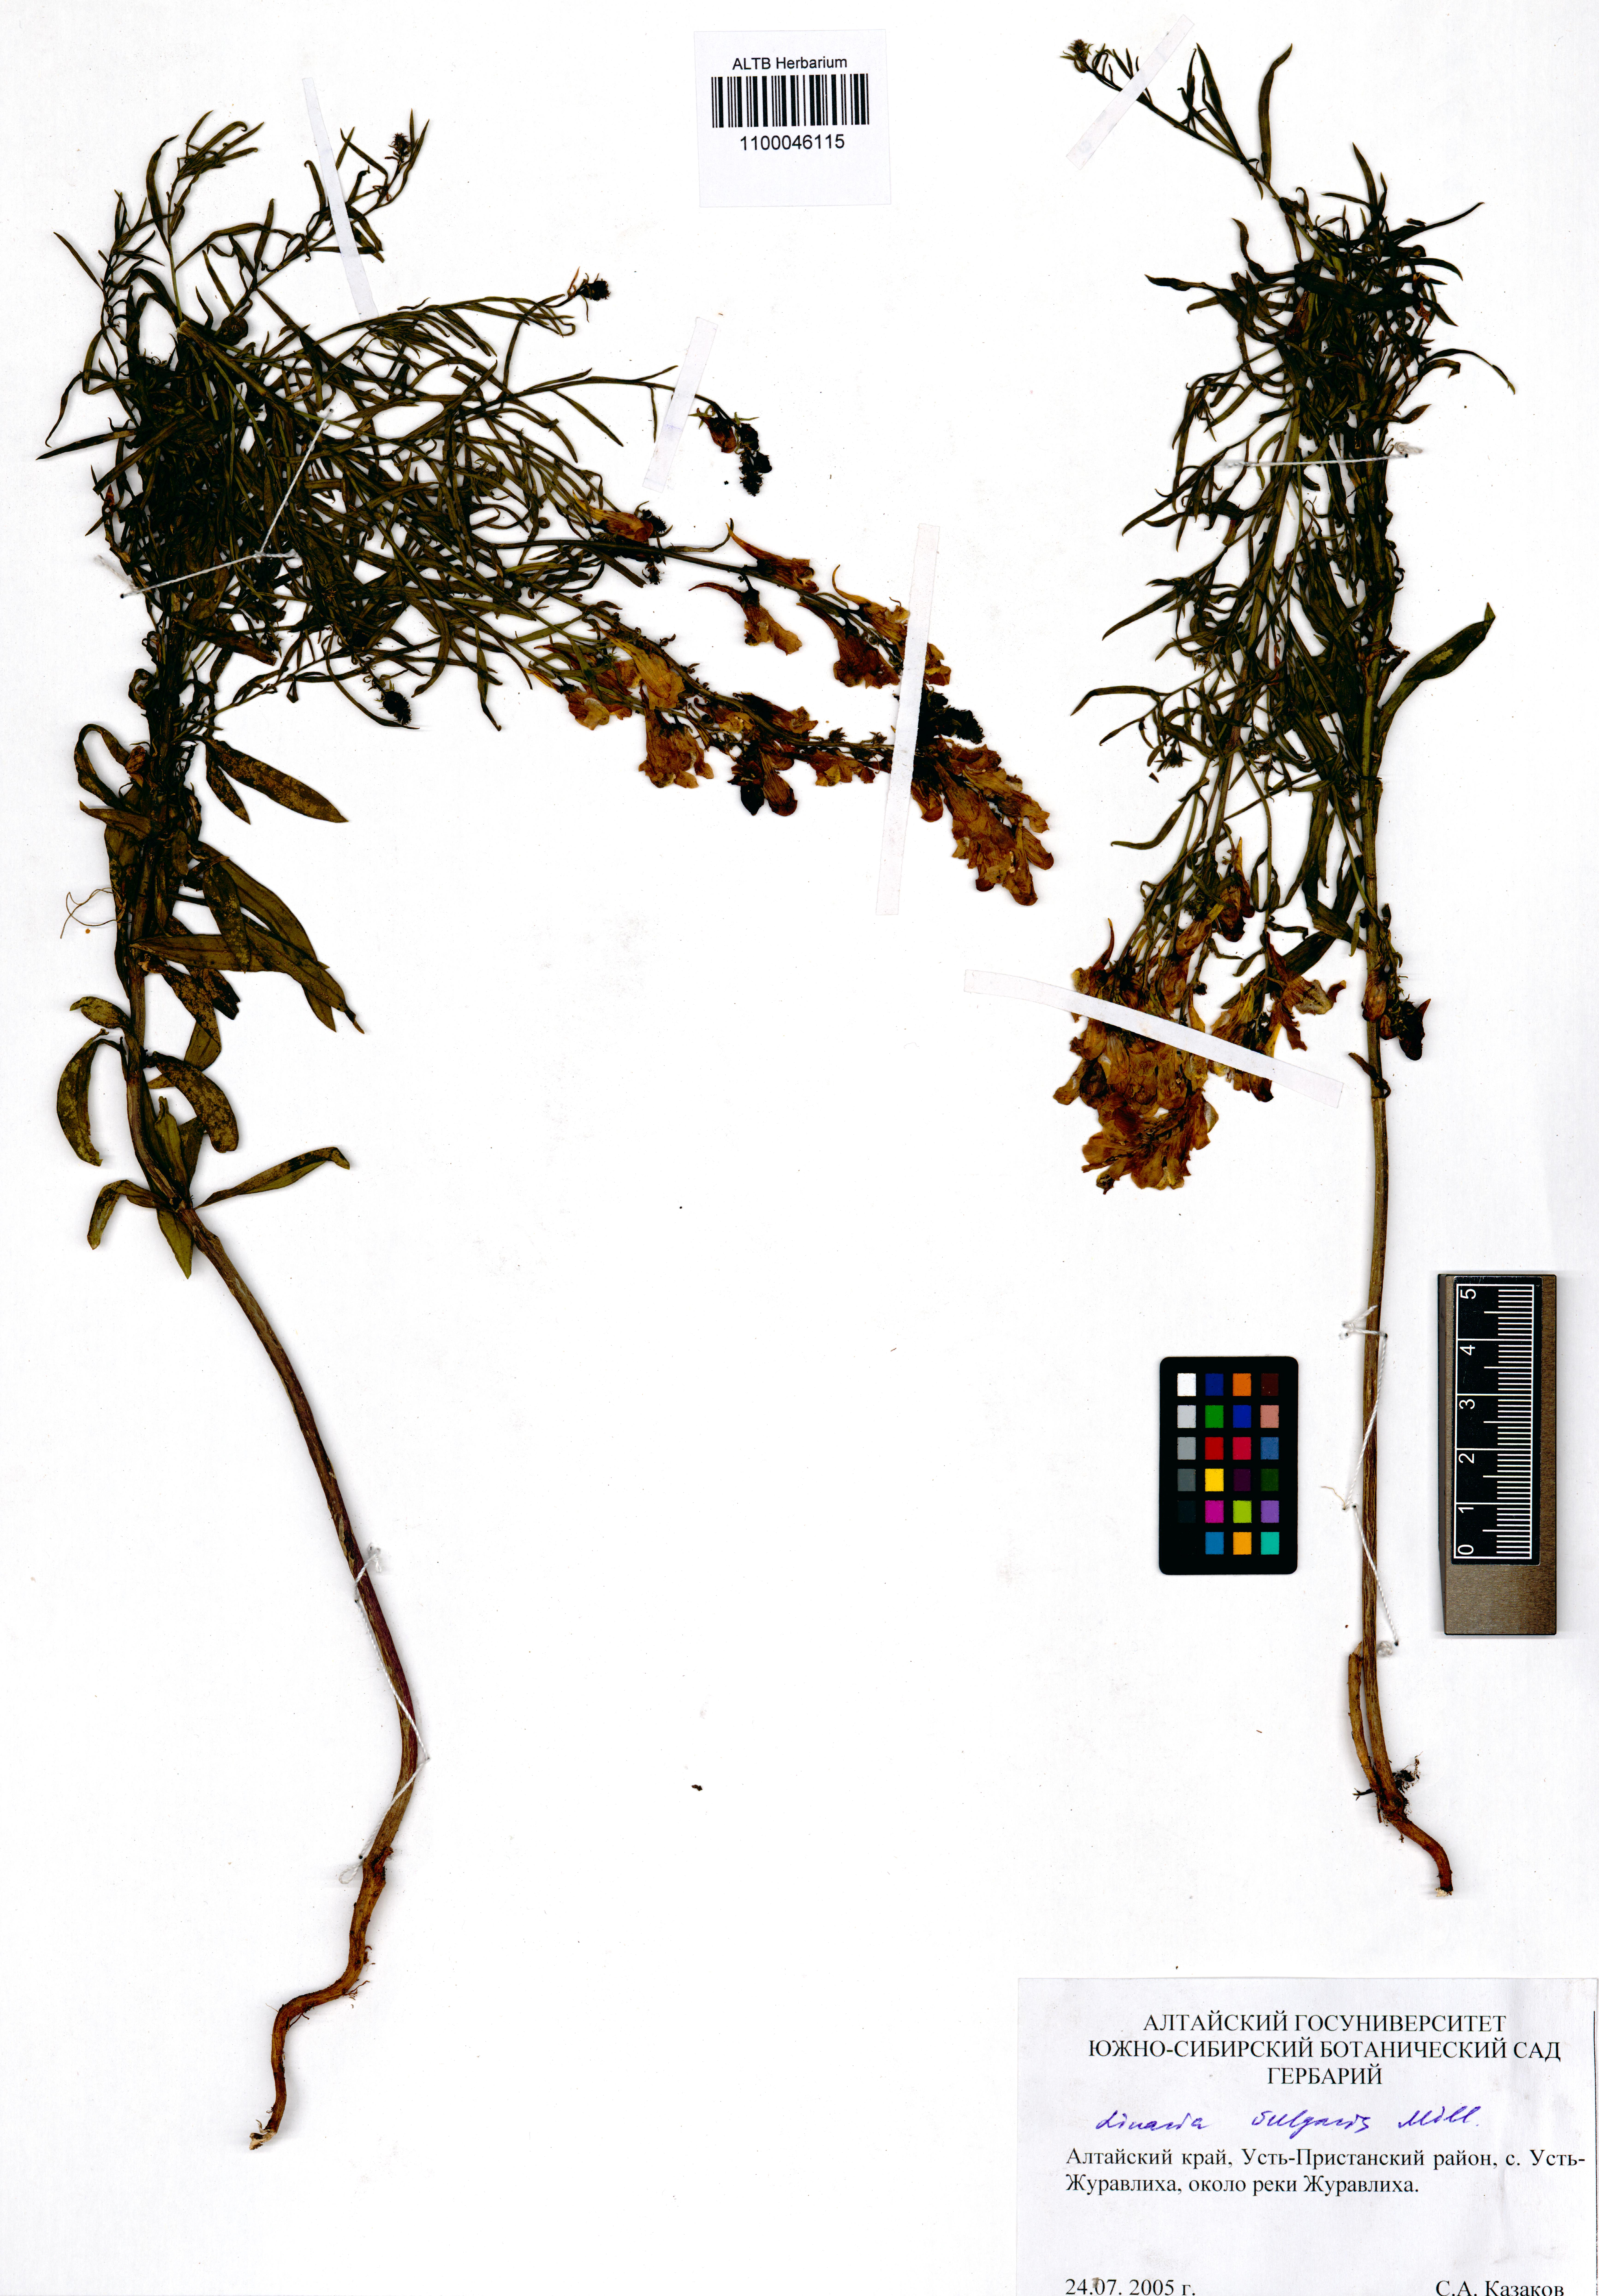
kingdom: Plantae
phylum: Tracheophyta
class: Magnoliopsida
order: Lamiales
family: Plantaginaceae
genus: Linaria
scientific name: Linaria vulgaris
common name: Butter and eggs
